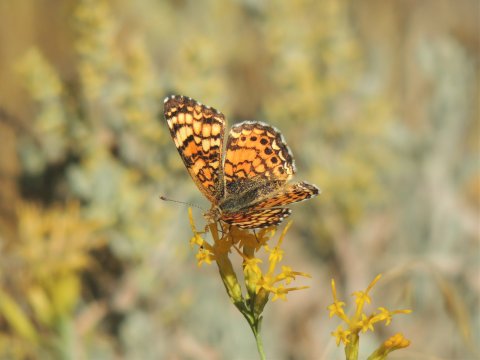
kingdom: Animalia
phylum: Arthropoda
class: Insecta
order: Lepidoptera
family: Nymphalidae
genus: Eresia
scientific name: Eresia aveyrona
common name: Mylitta Crescent
